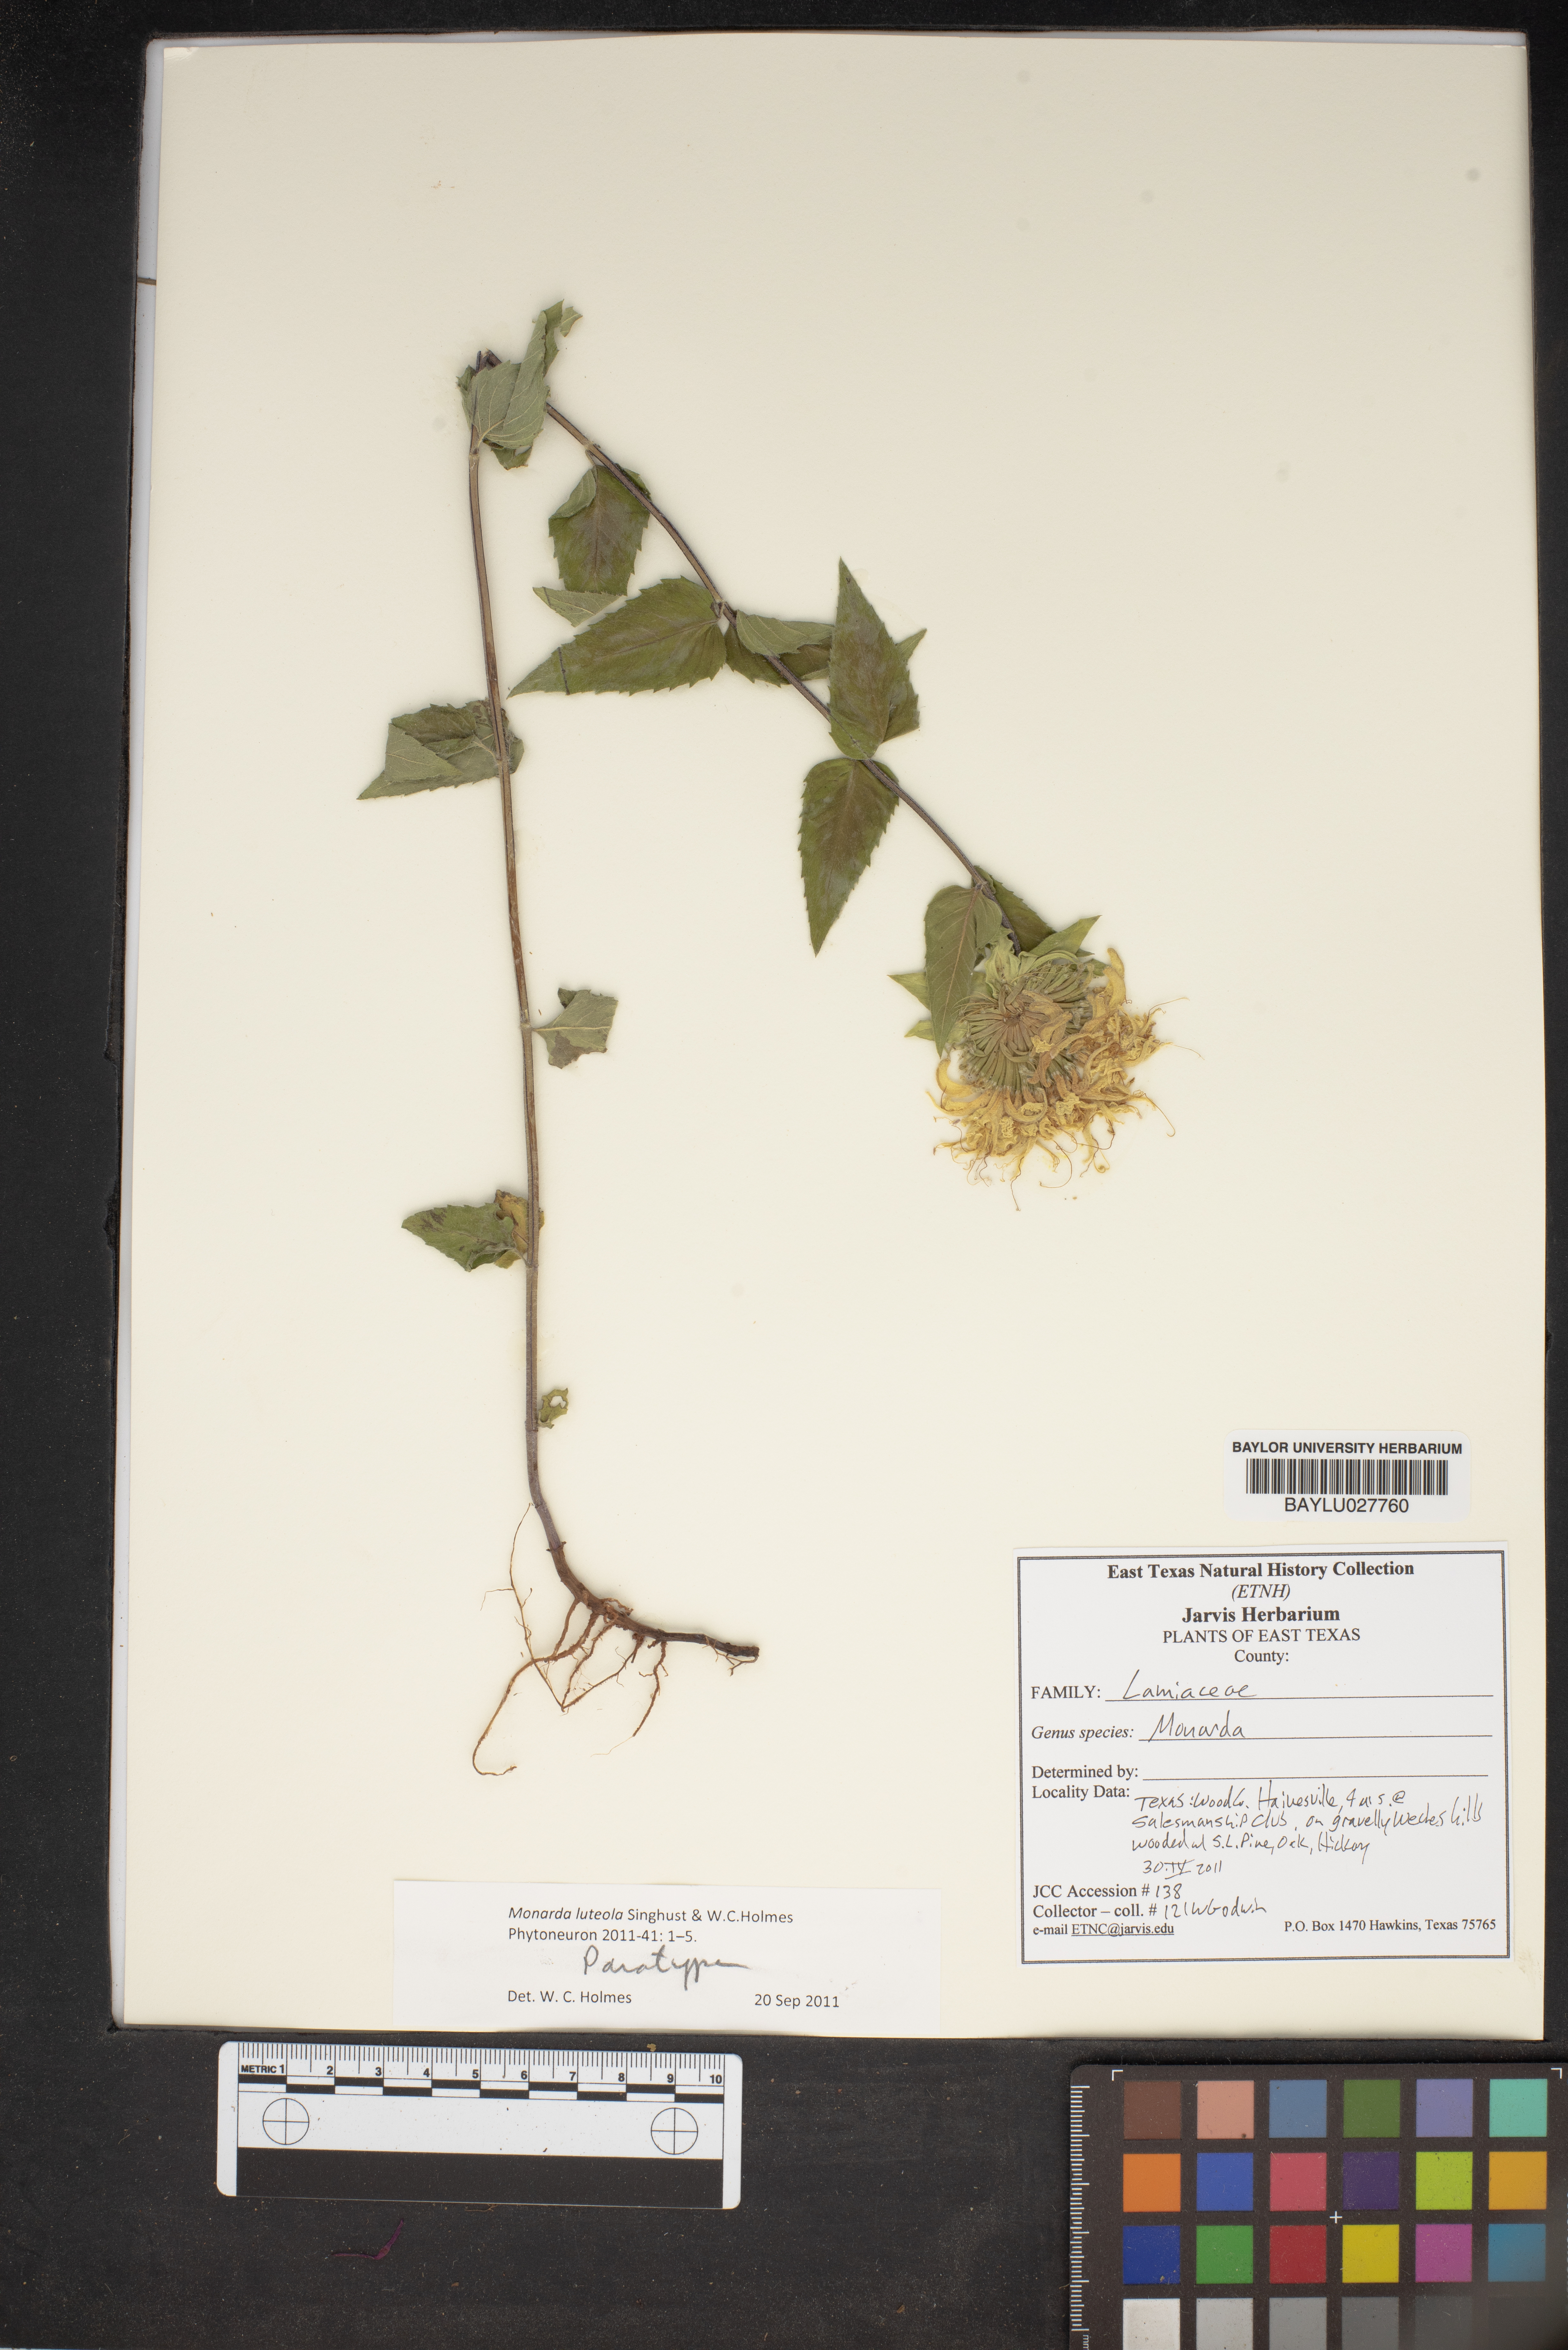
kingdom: Plantae
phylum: Tracheophyta
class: Magnoliopsida
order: Lamiales
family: Lamiaceae
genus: Monarda
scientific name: Monarda luteola
